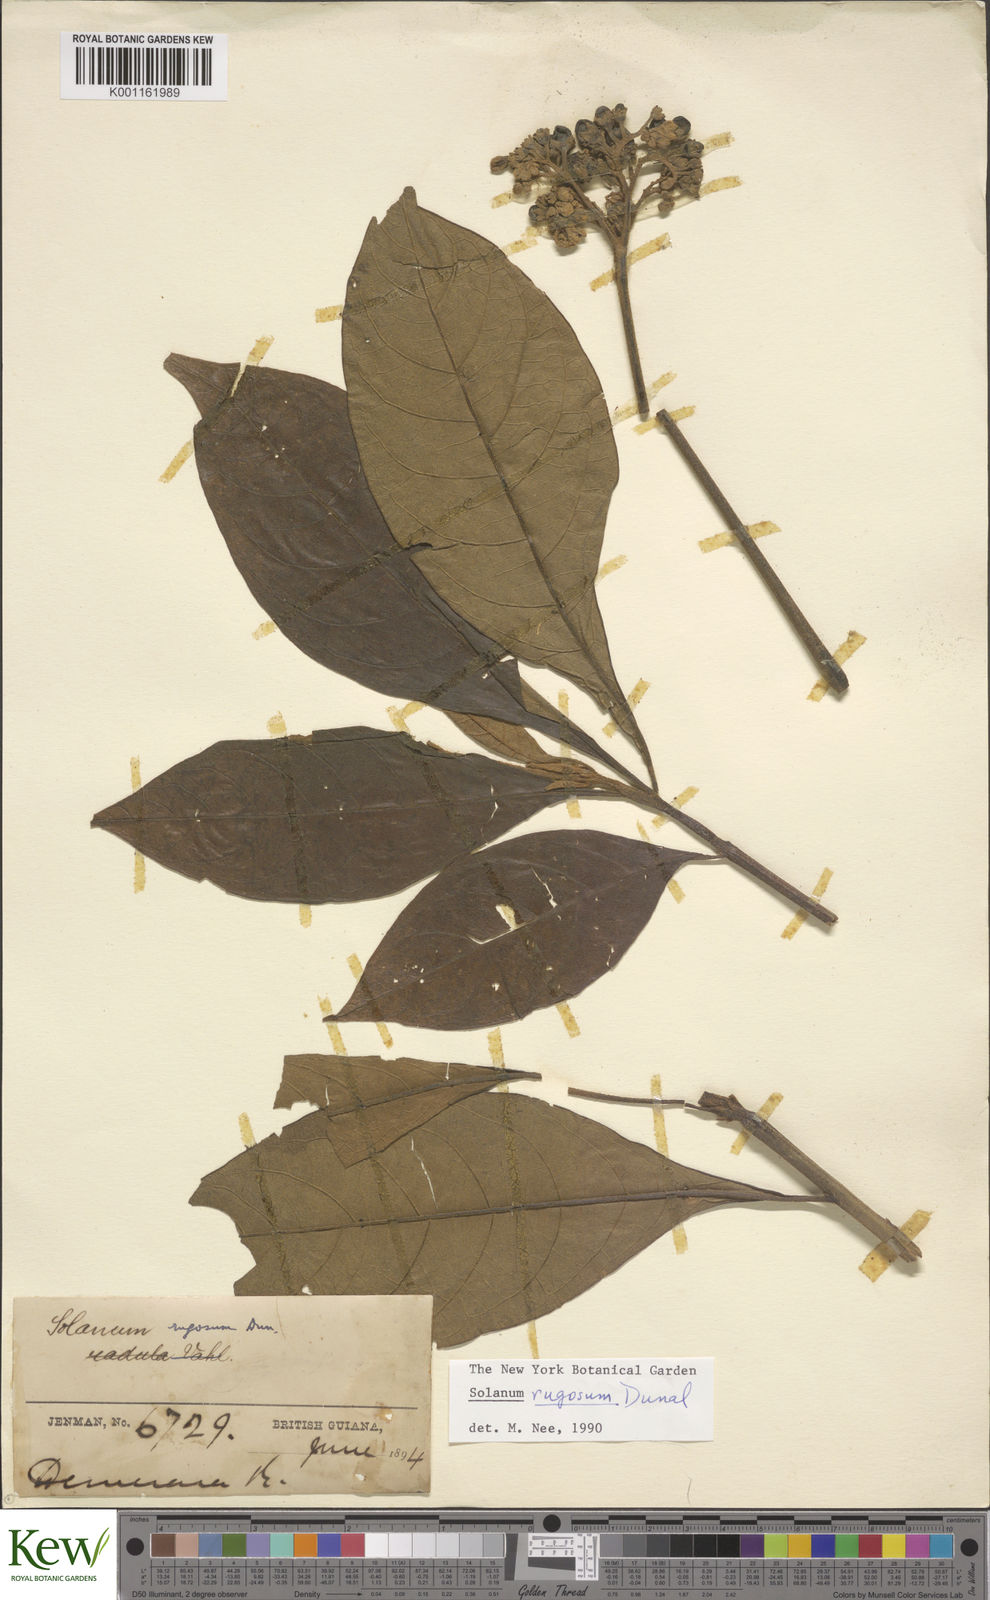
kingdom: Plantae
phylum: Tracheophyta
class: Magnoliopsida
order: Solanales
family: Solanaceae
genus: Solanum
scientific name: Solanum rugosum
